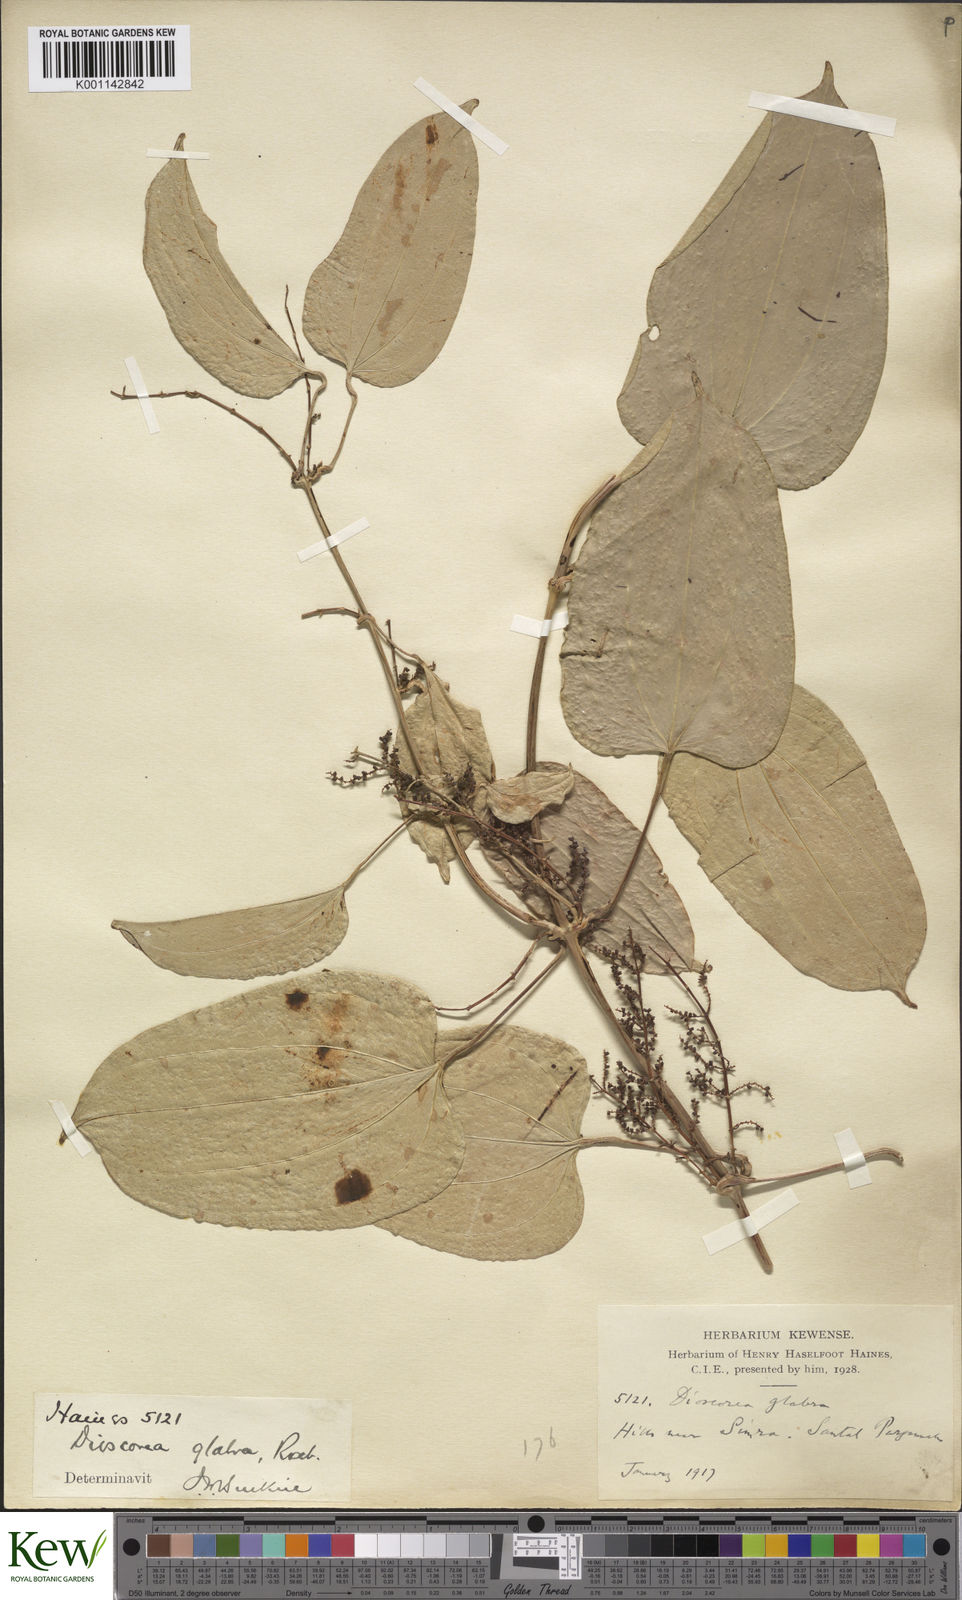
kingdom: Plantae
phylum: Tracheophyta
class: Liliopsida
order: Dioscoreales
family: Dioscoreaceae
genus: Dioscorea
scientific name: Dioscorea glabra
